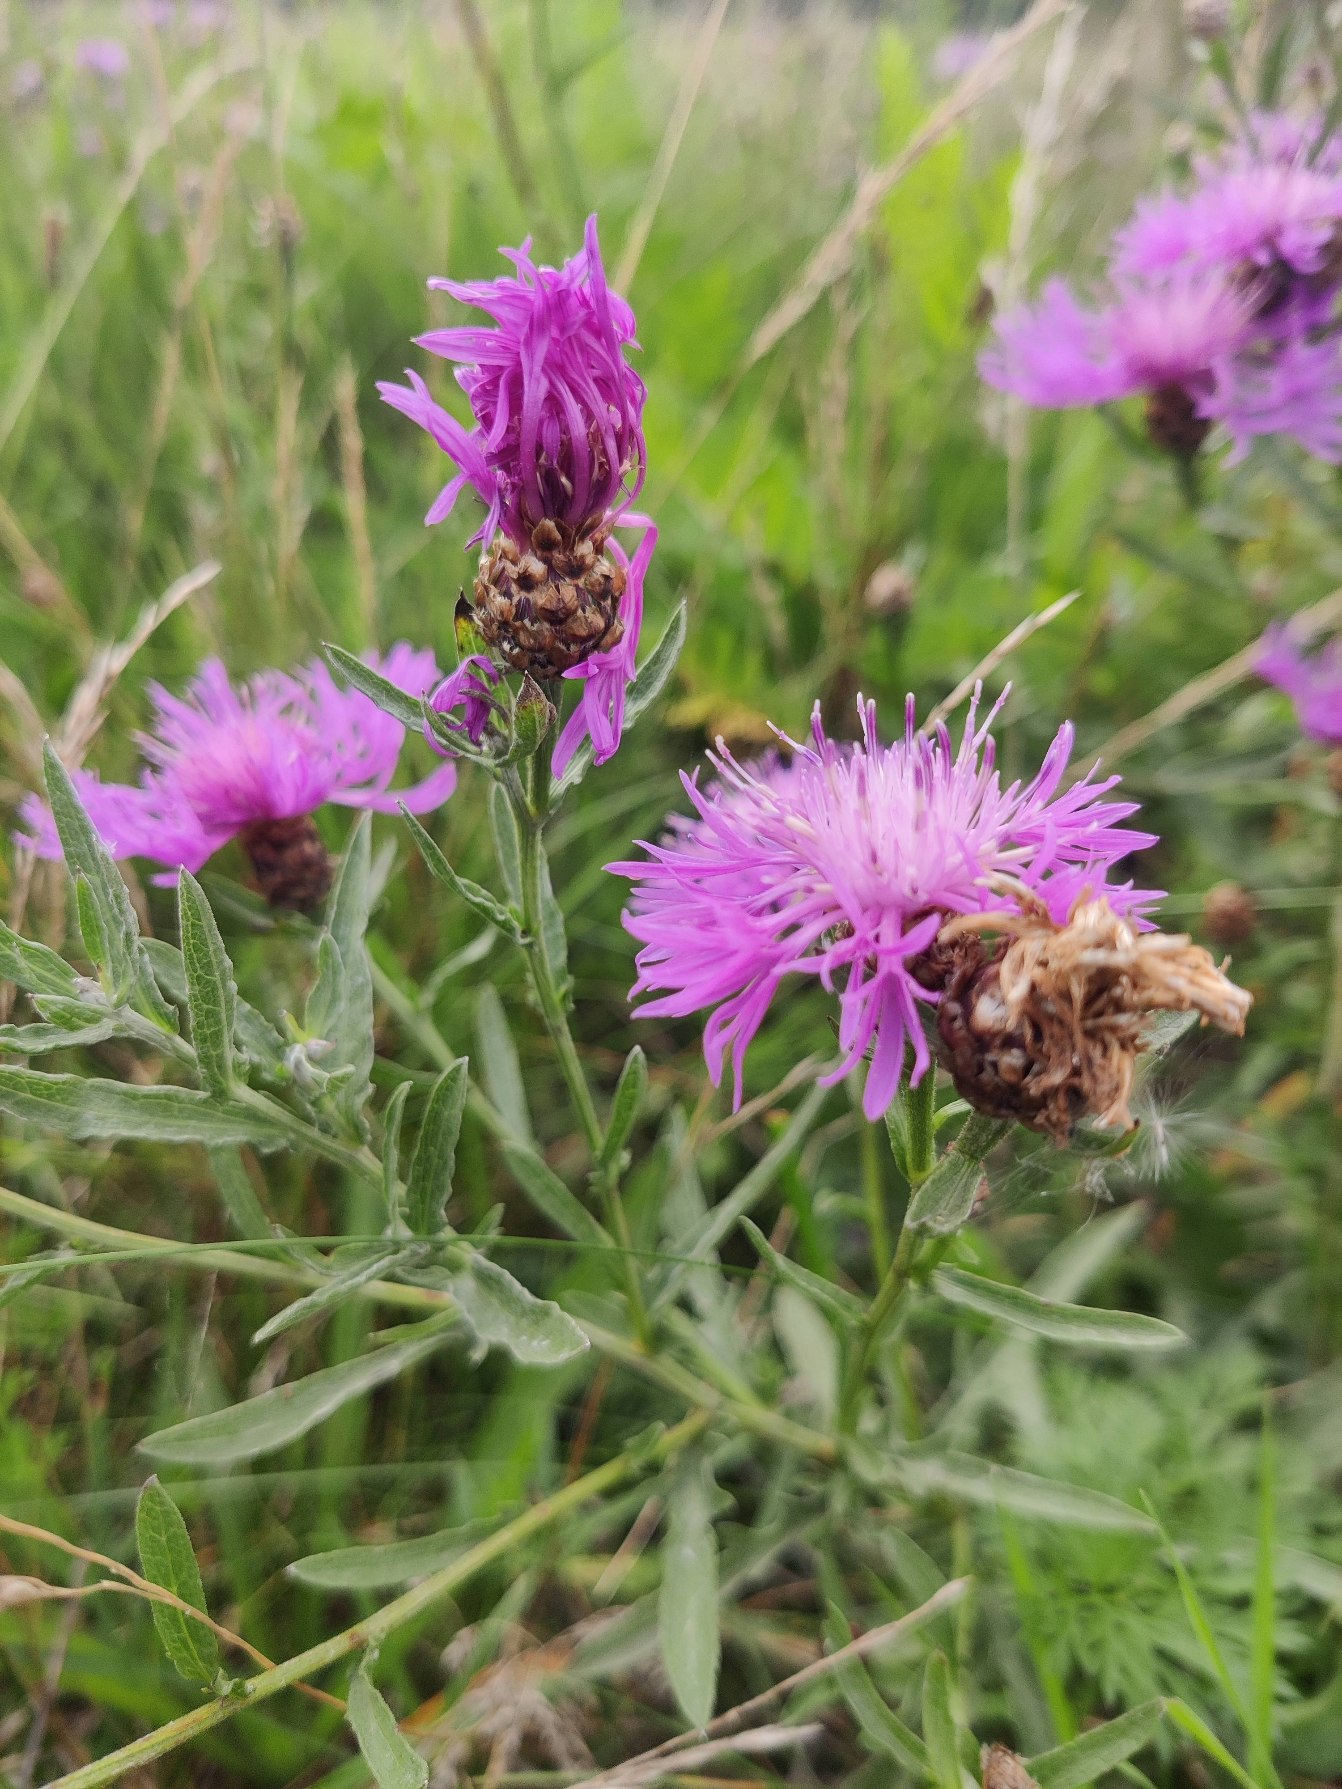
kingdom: Plantae
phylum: Tracheophyta
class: Magnoliopsida
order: Asterales
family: Asteraceae
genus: Centaurea
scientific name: Centaurea jacea
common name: Almindelig knopurt
